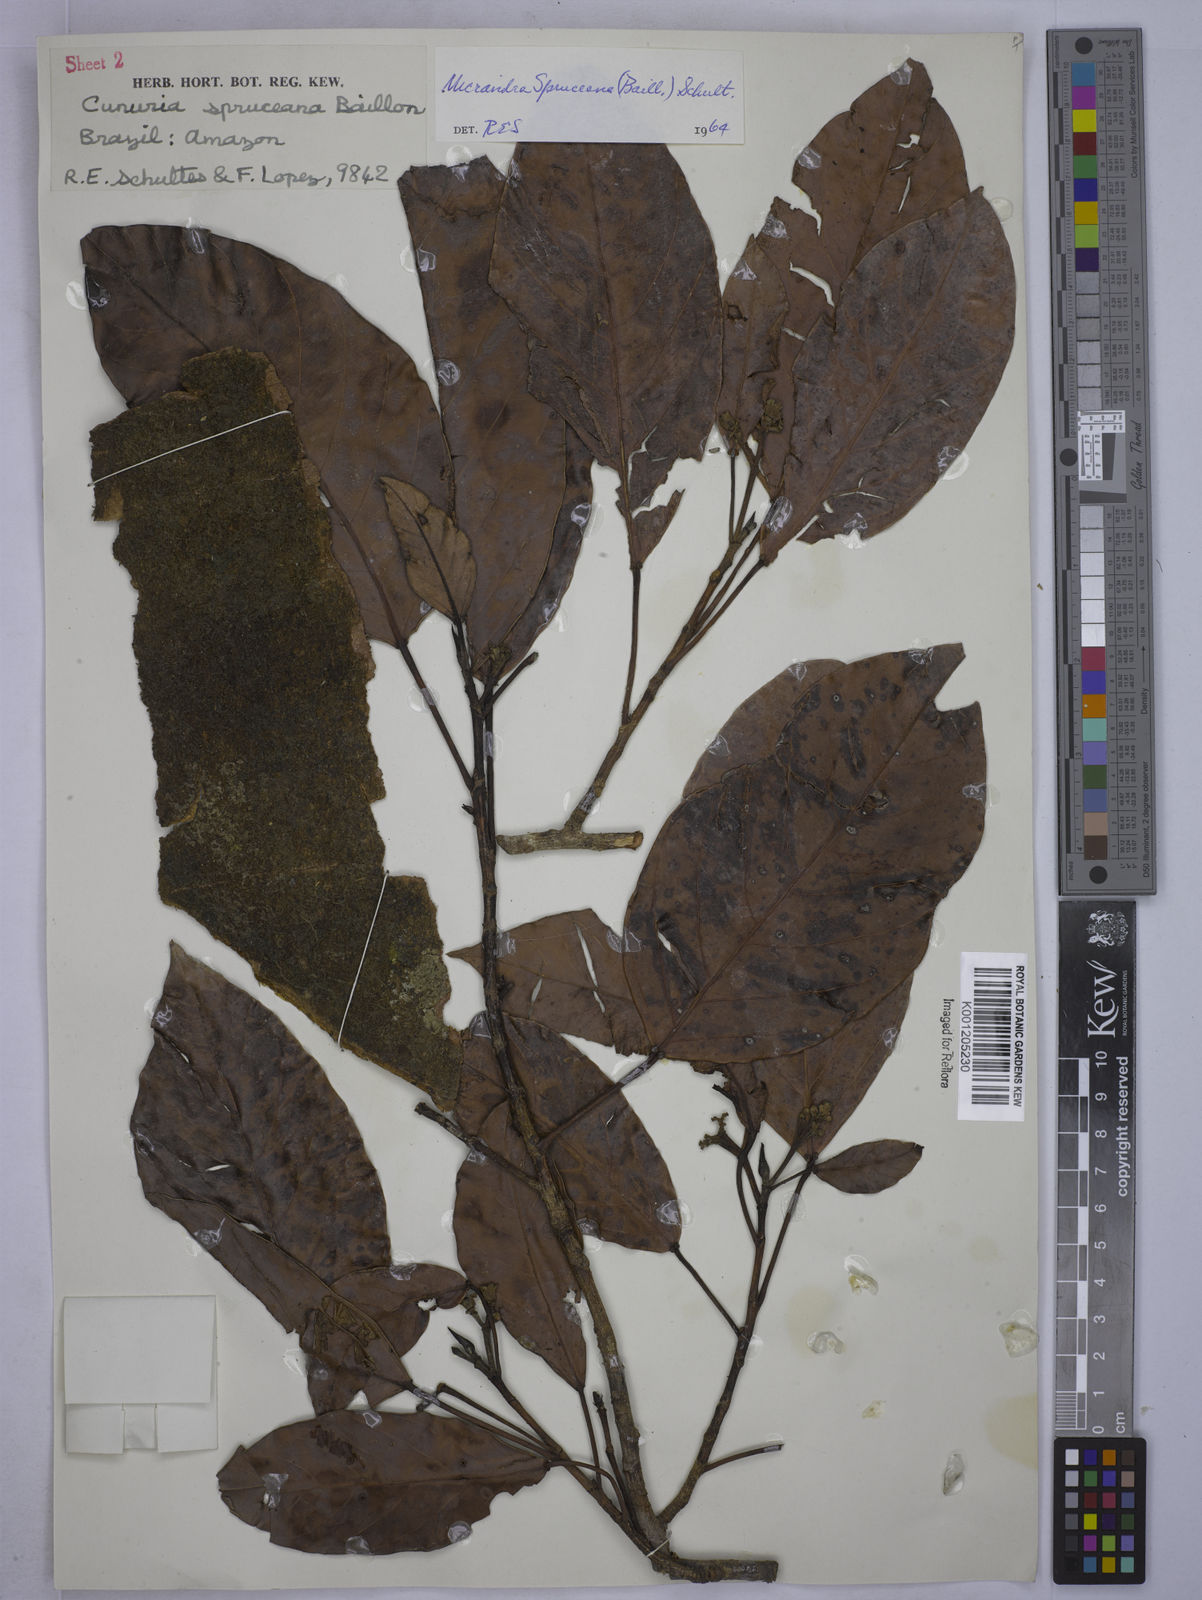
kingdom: Plantae
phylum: Tracheophyta
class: Magnoliopsida
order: Malpighiales
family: Euphorbiaceae
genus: Micrandra
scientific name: Micrandra spruceana
